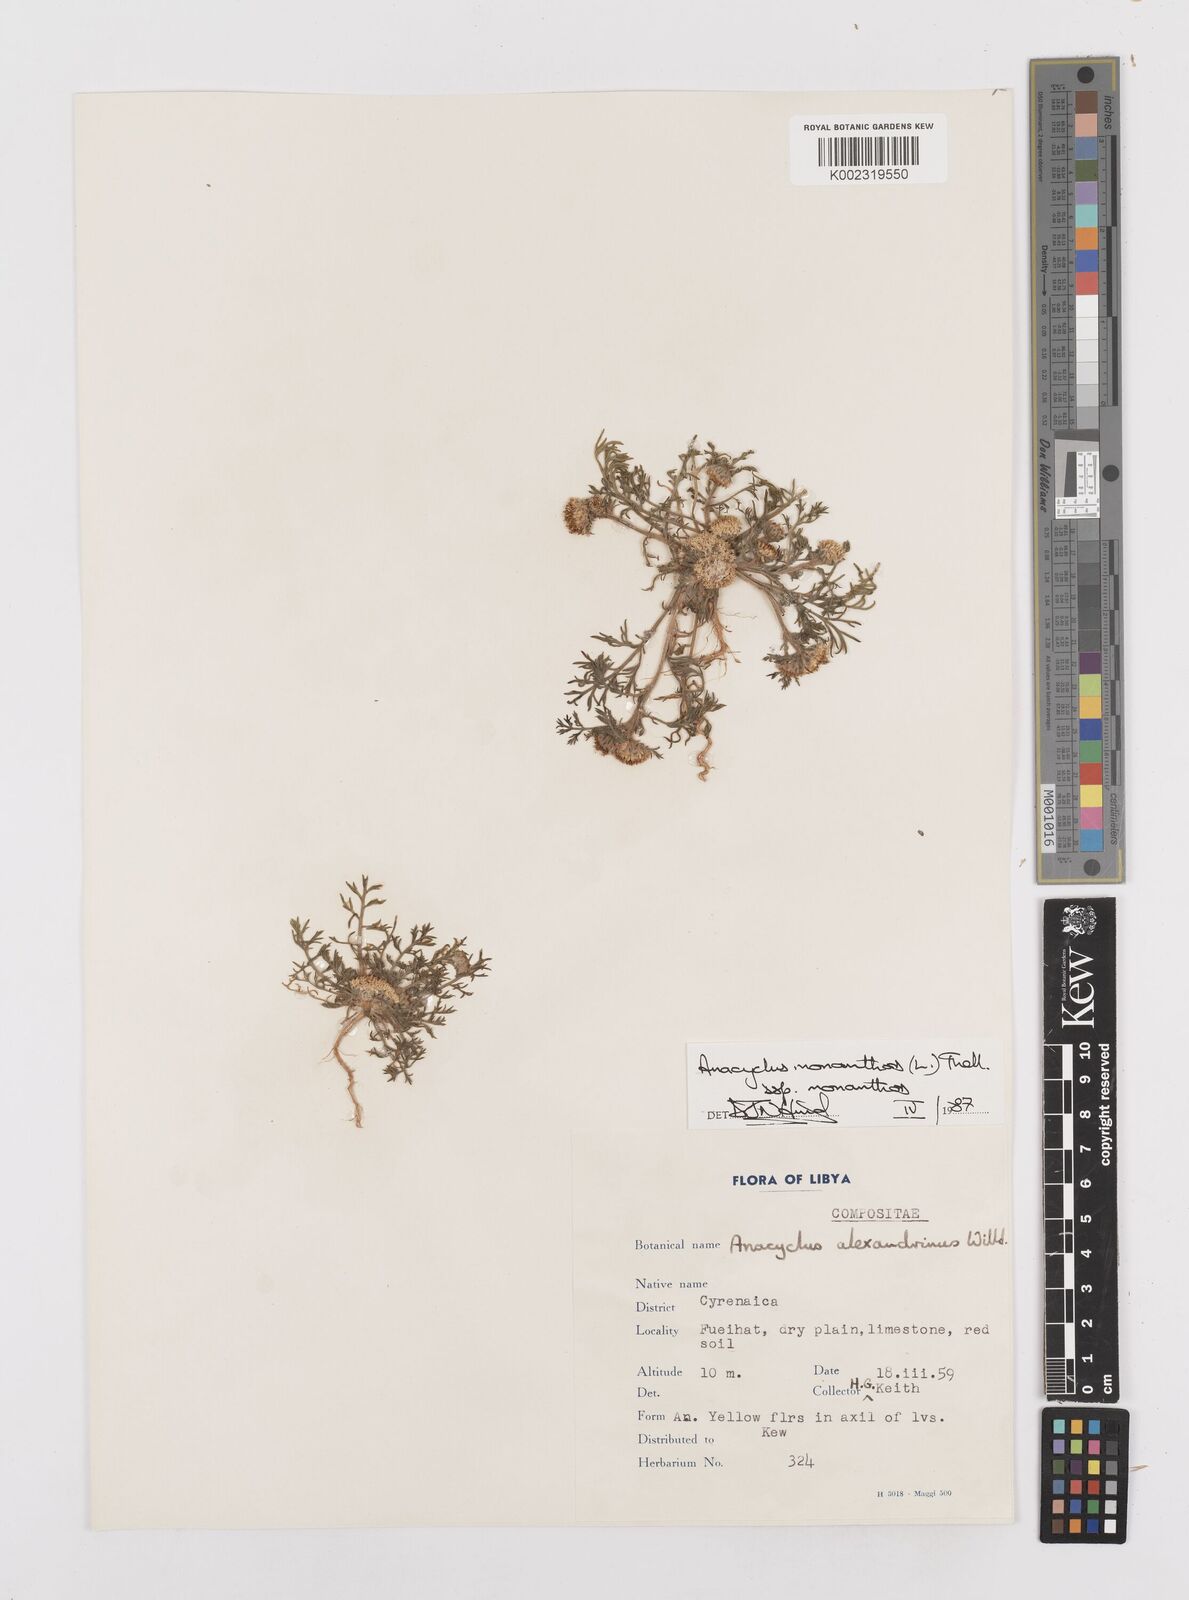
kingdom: Plantae
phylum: Tracheophyta
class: Magnoliopsida
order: Asterales
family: Asteraceae
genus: Anacyclus
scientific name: Anacyclus monanthos
